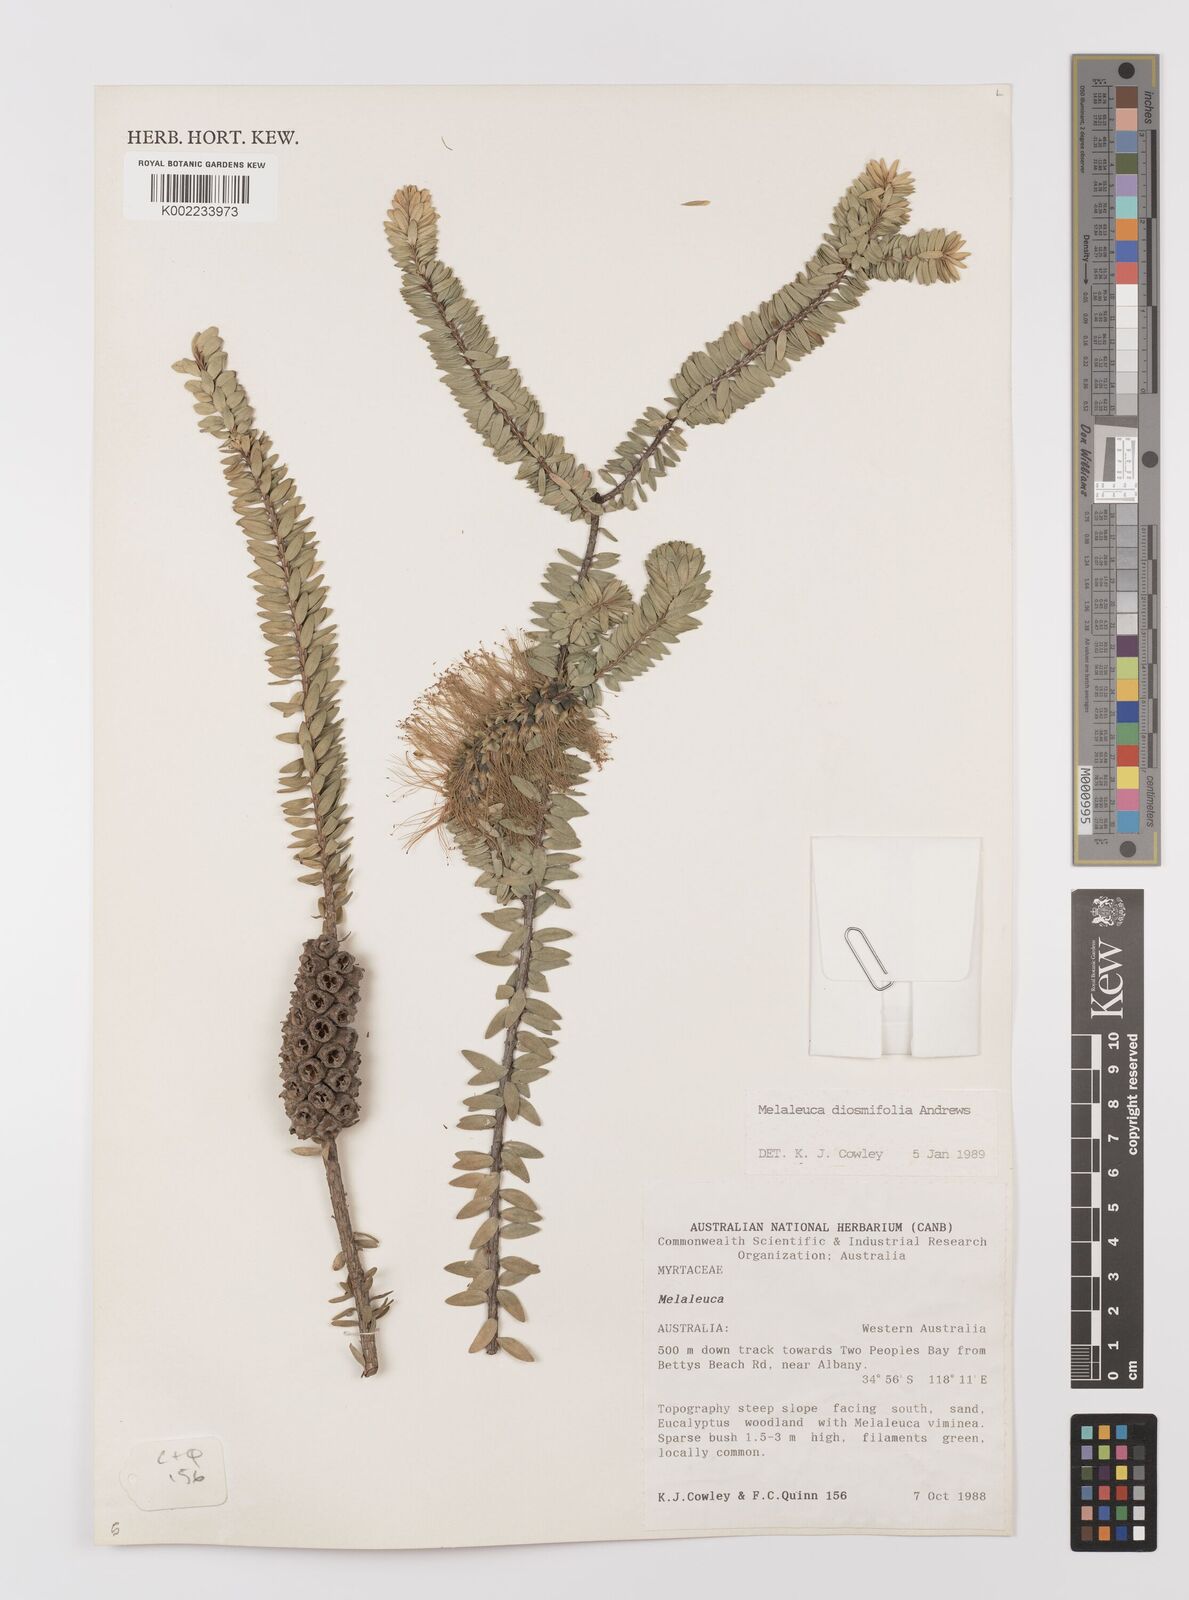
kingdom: Plantae
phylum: Tracheophyta
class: Magnoliopsida
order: Myrtales
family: Myrtaceae
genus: Melaleuca
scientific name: Melaleuca diosmifolia
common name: Green honey myrtle
